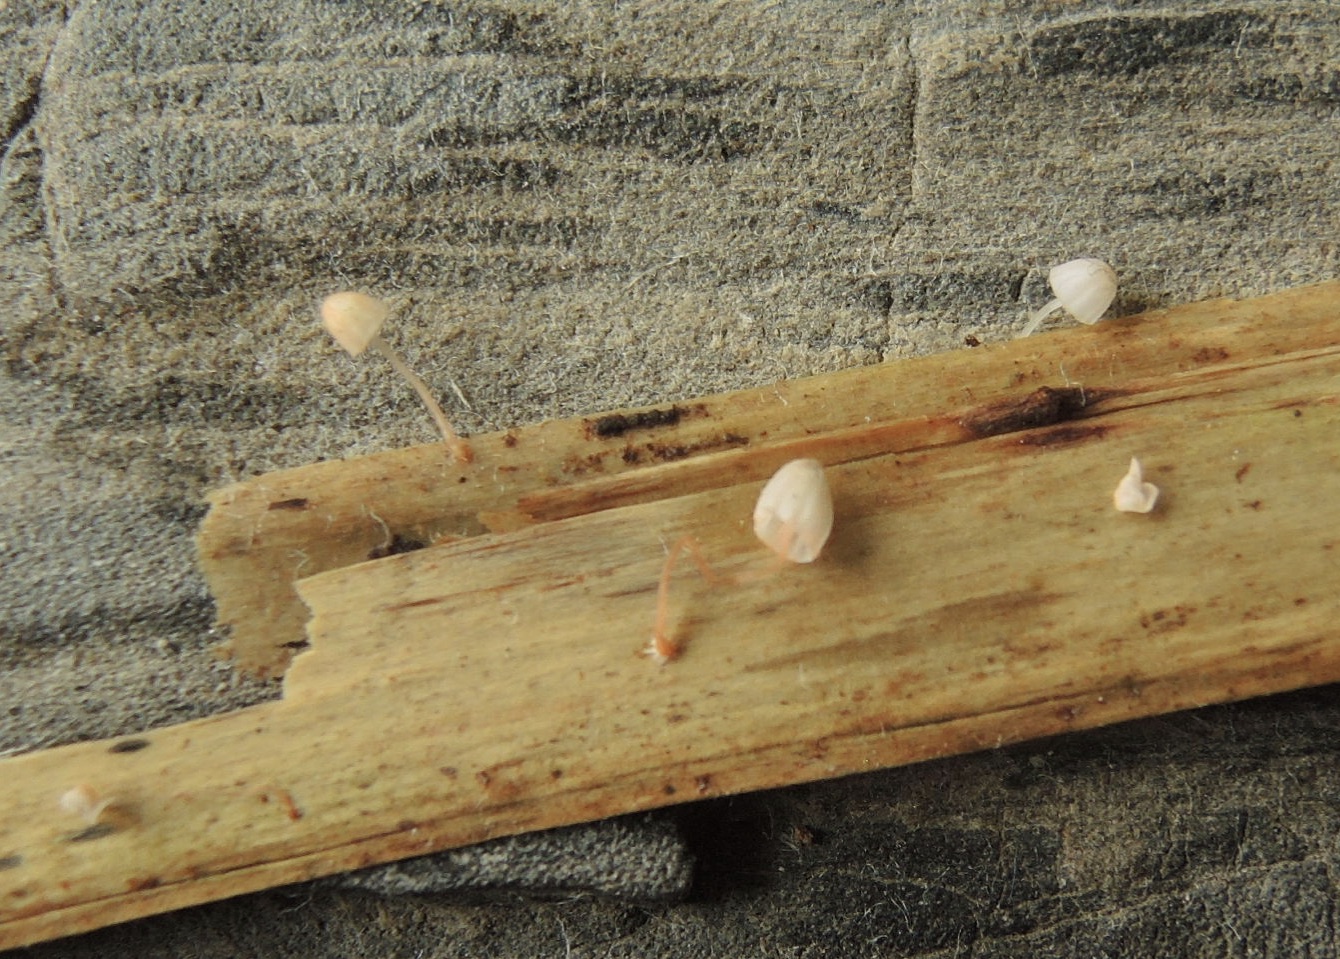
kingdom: Fungi
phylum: Basidiomycota
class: Agaricomycetes
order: Agaricales
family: Mycenaceae
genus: Mycena
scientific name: Mycena pterigena
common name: bregne-huesvamp
